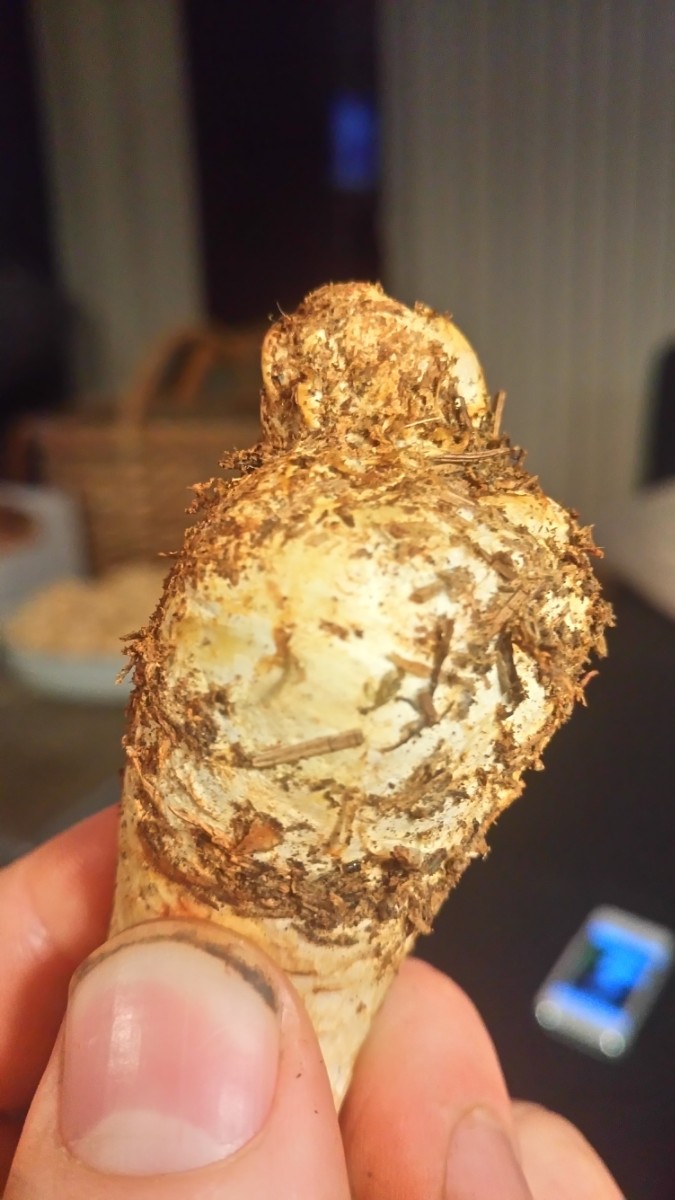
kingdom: Fungi
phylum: Basidiomycota
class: Agaricomycetes
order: Agaricales
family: Agaricaceae
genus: Agaricus
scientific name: Agaricus sylvicola
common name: gulhvid champignon
